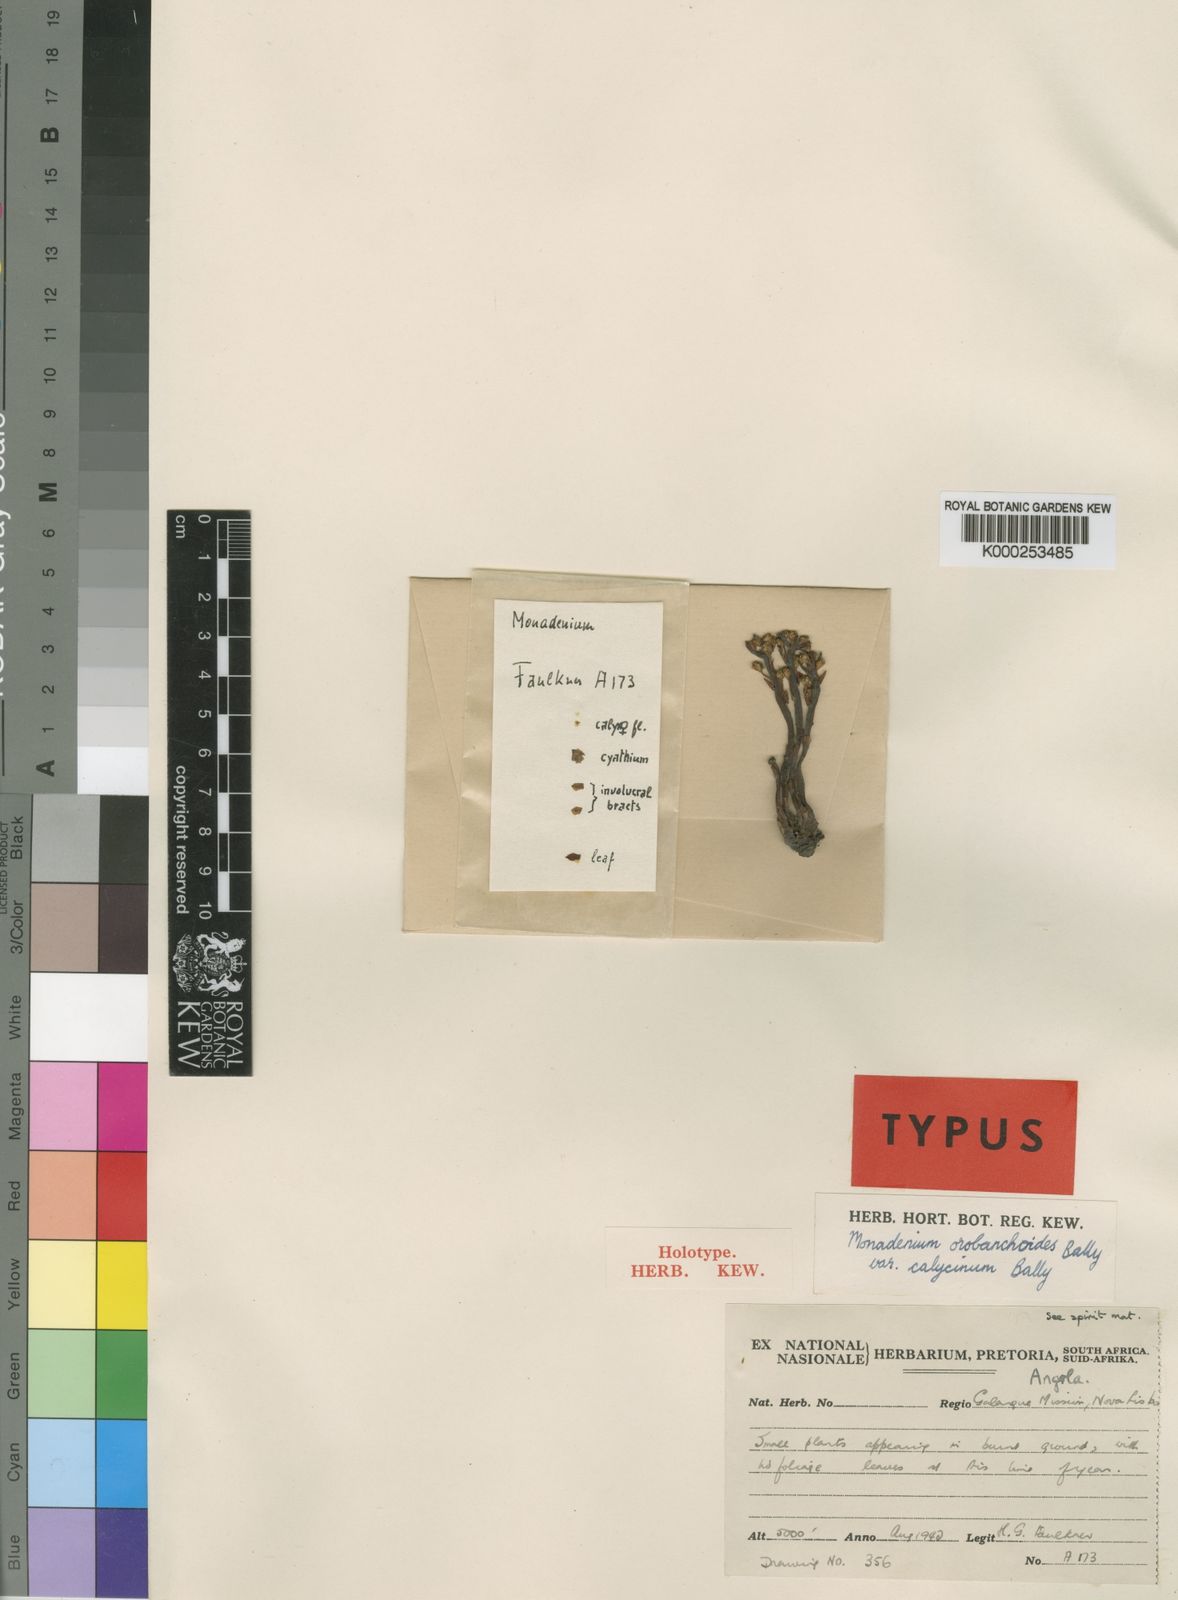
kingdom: Plantae
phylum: Tracheophyta
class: Magnoliopsida
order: Malpighiales
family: Euphorbiaceae
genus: Euphorbia
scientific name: Euphorbia orobanchoides
